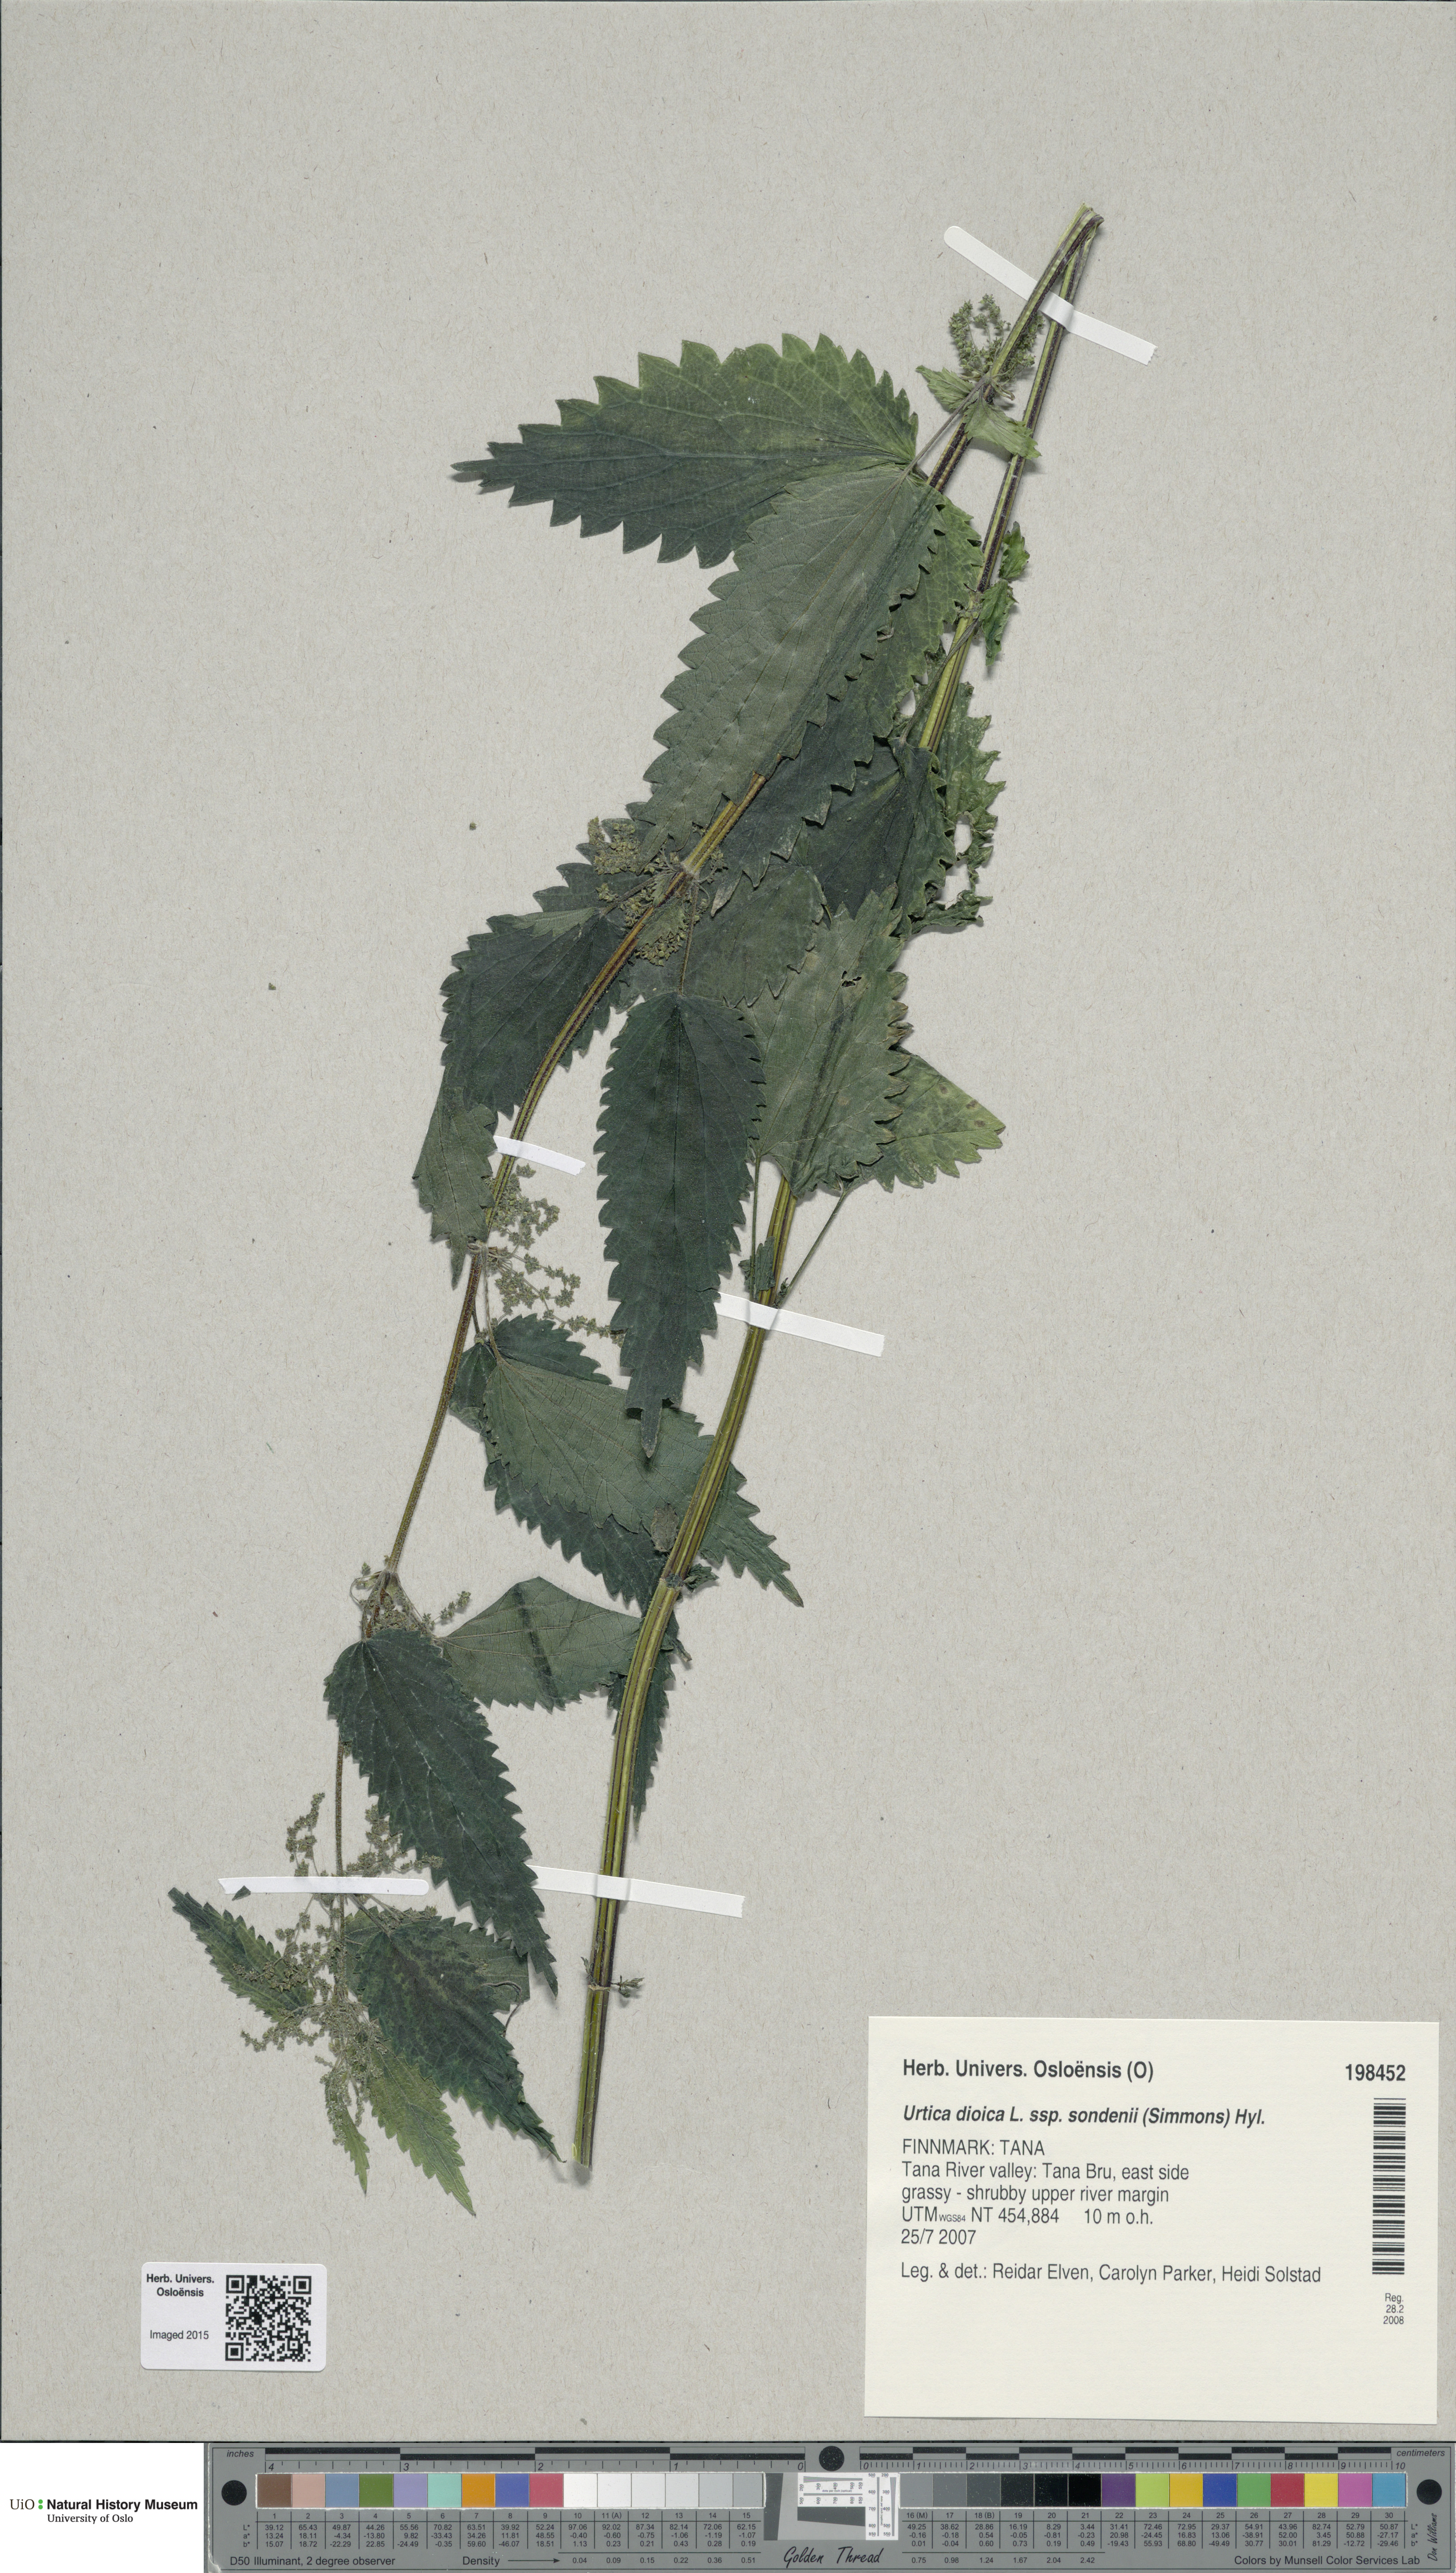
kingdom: Plantae
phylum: Tracheophyta
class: Magnoliopsida
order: Rosales
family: Urticaceae
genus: Urtica
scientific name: Urtica dioica
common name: Common nettle
